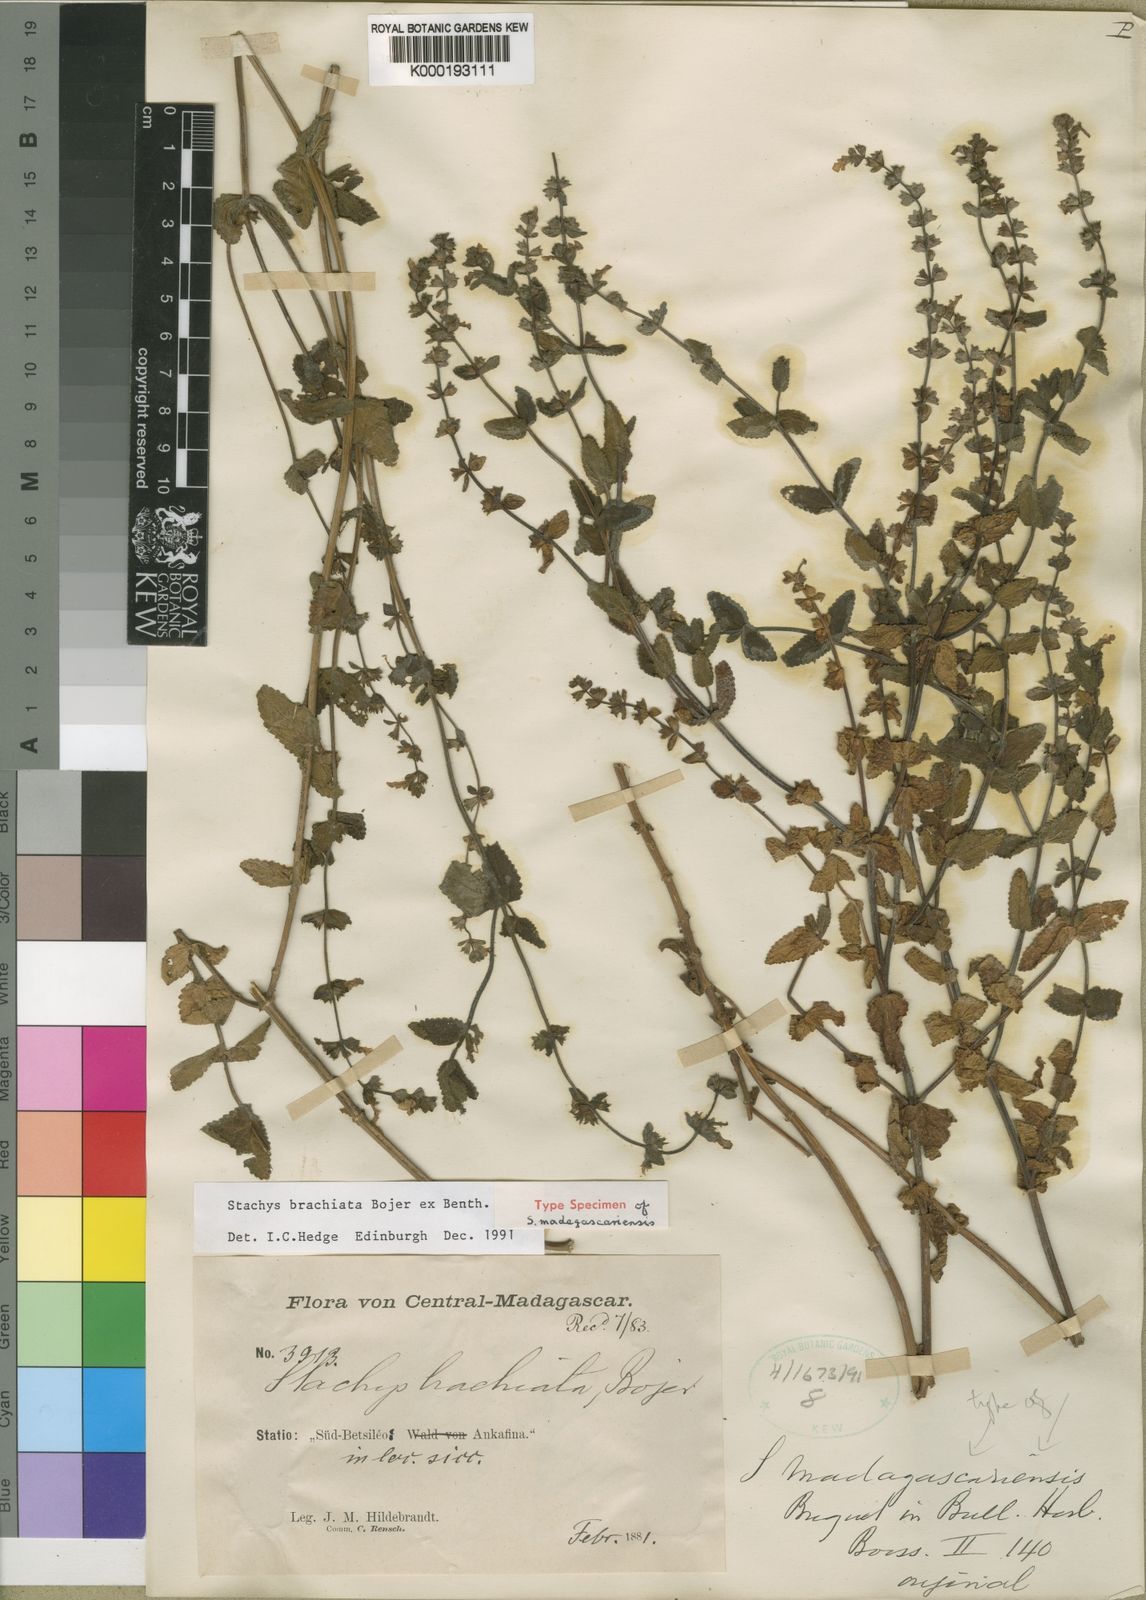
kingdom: Plantae
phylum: Tracheophyta
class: Magnoliopsida
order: Lamiales
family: Lamiaceae
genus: Stachys
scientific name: Stachys brachiata
